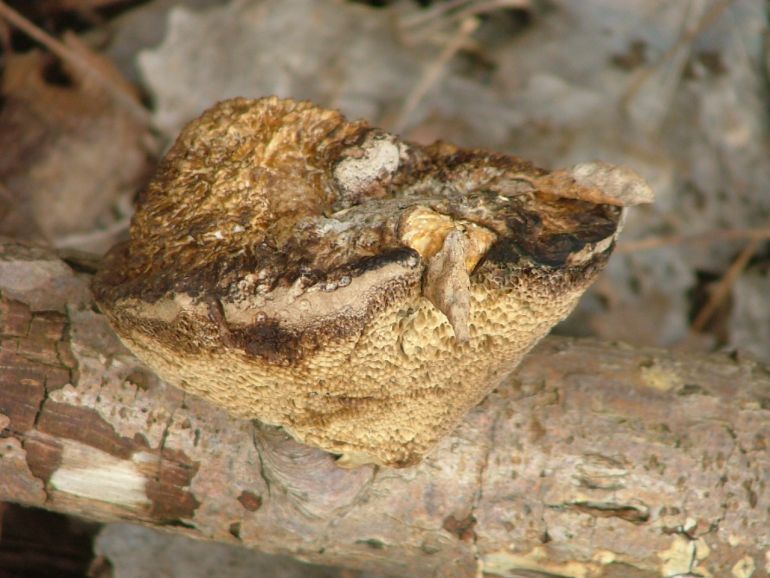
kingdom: Fungi
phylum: Basidiomycota
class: Agaricomycetes
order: Polyporales
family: Polyporaceae
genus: Daedaleopsis
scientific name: Daedaleopsis confragosa
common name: rødmende læderporesvamp
